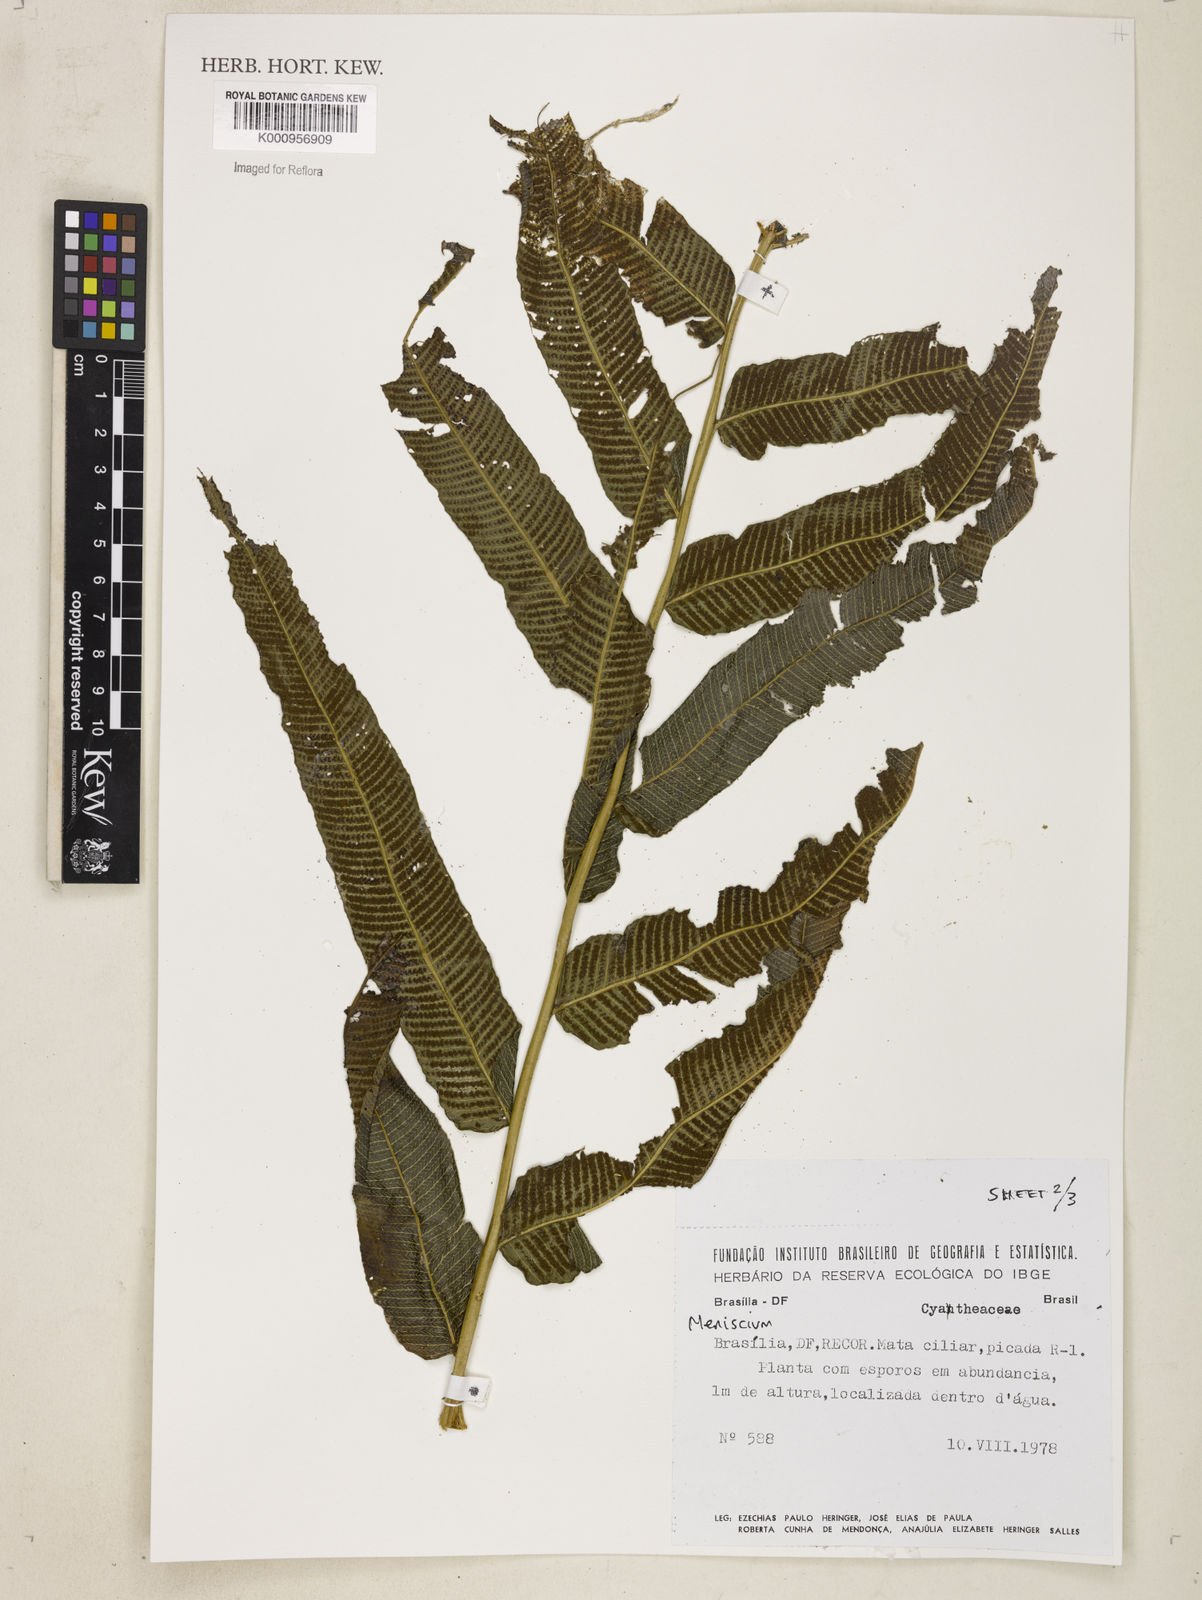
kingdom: Plantae
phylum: Tracheophyta
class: Polypodiopsida
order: Polypodiales
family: Thelypteridaceae
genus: Meniscium
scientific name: Meniscium
